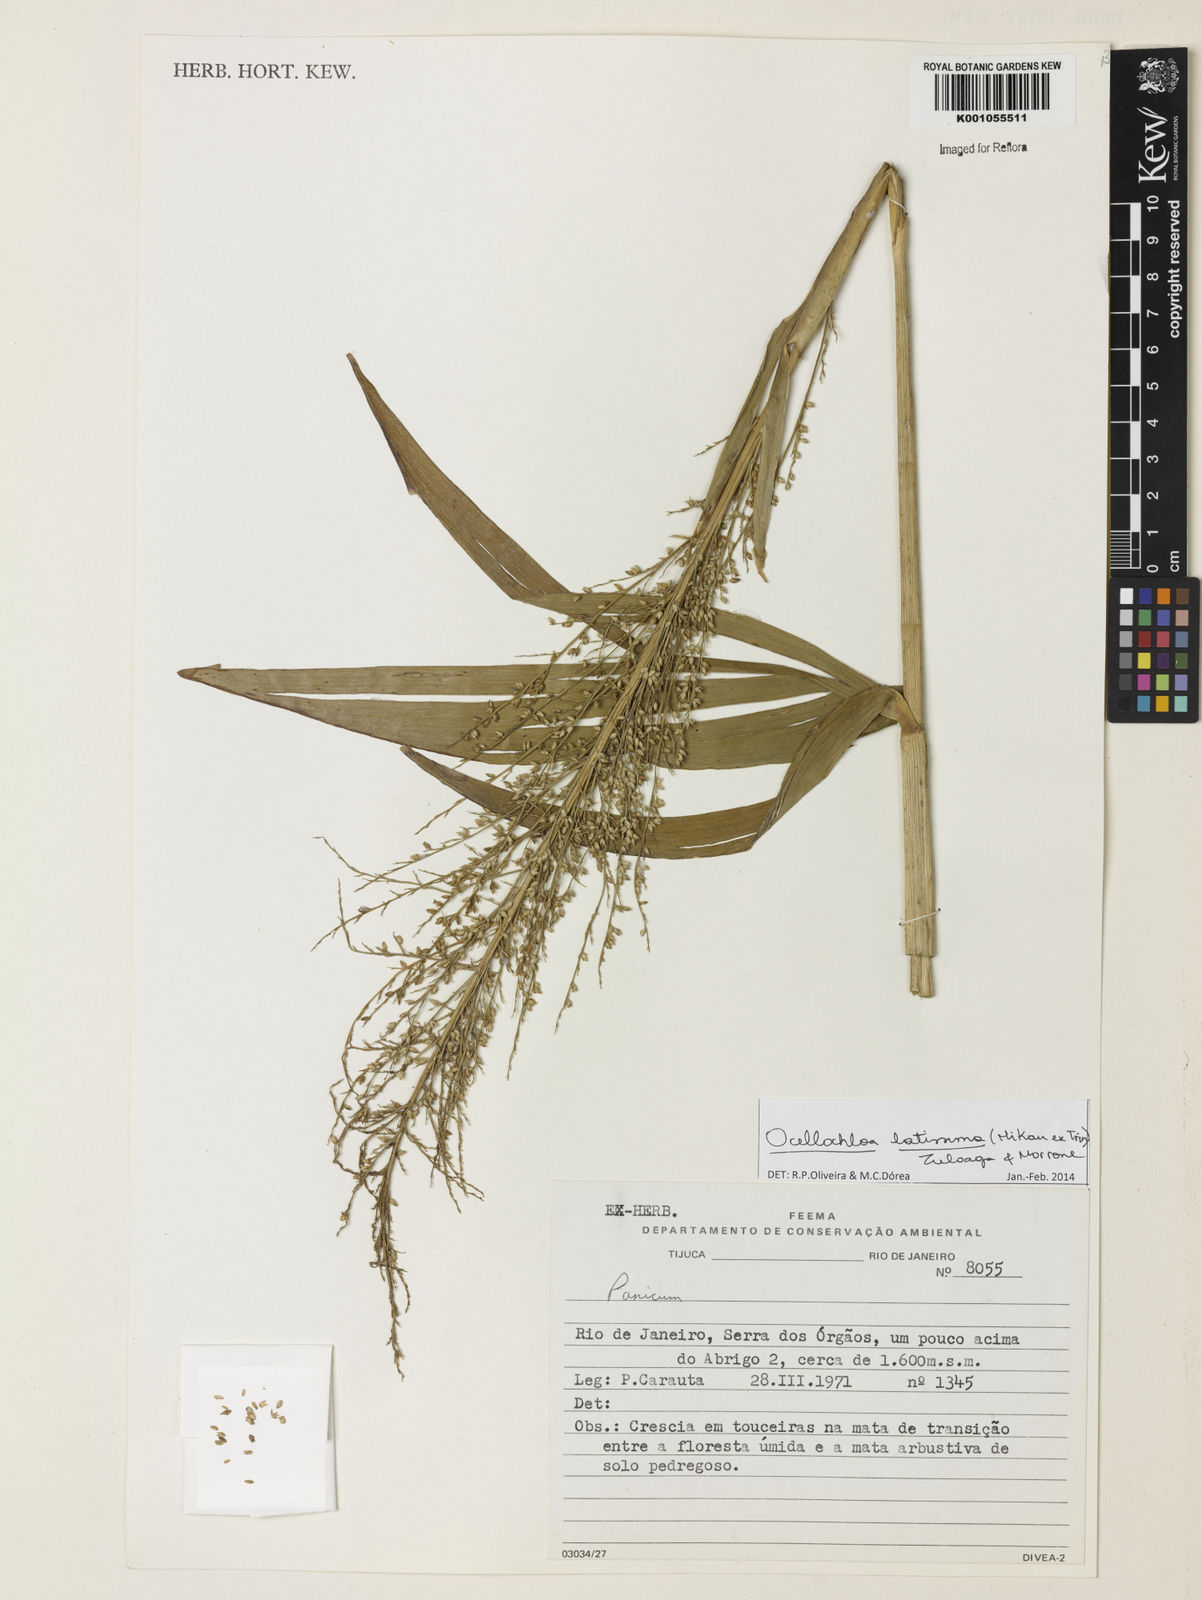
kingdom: Plantae
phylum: Tracheophyta
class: Liliopsida
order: Poales
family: Poaceae
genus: Ocellochloa
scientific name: Ocellochloa latissima
